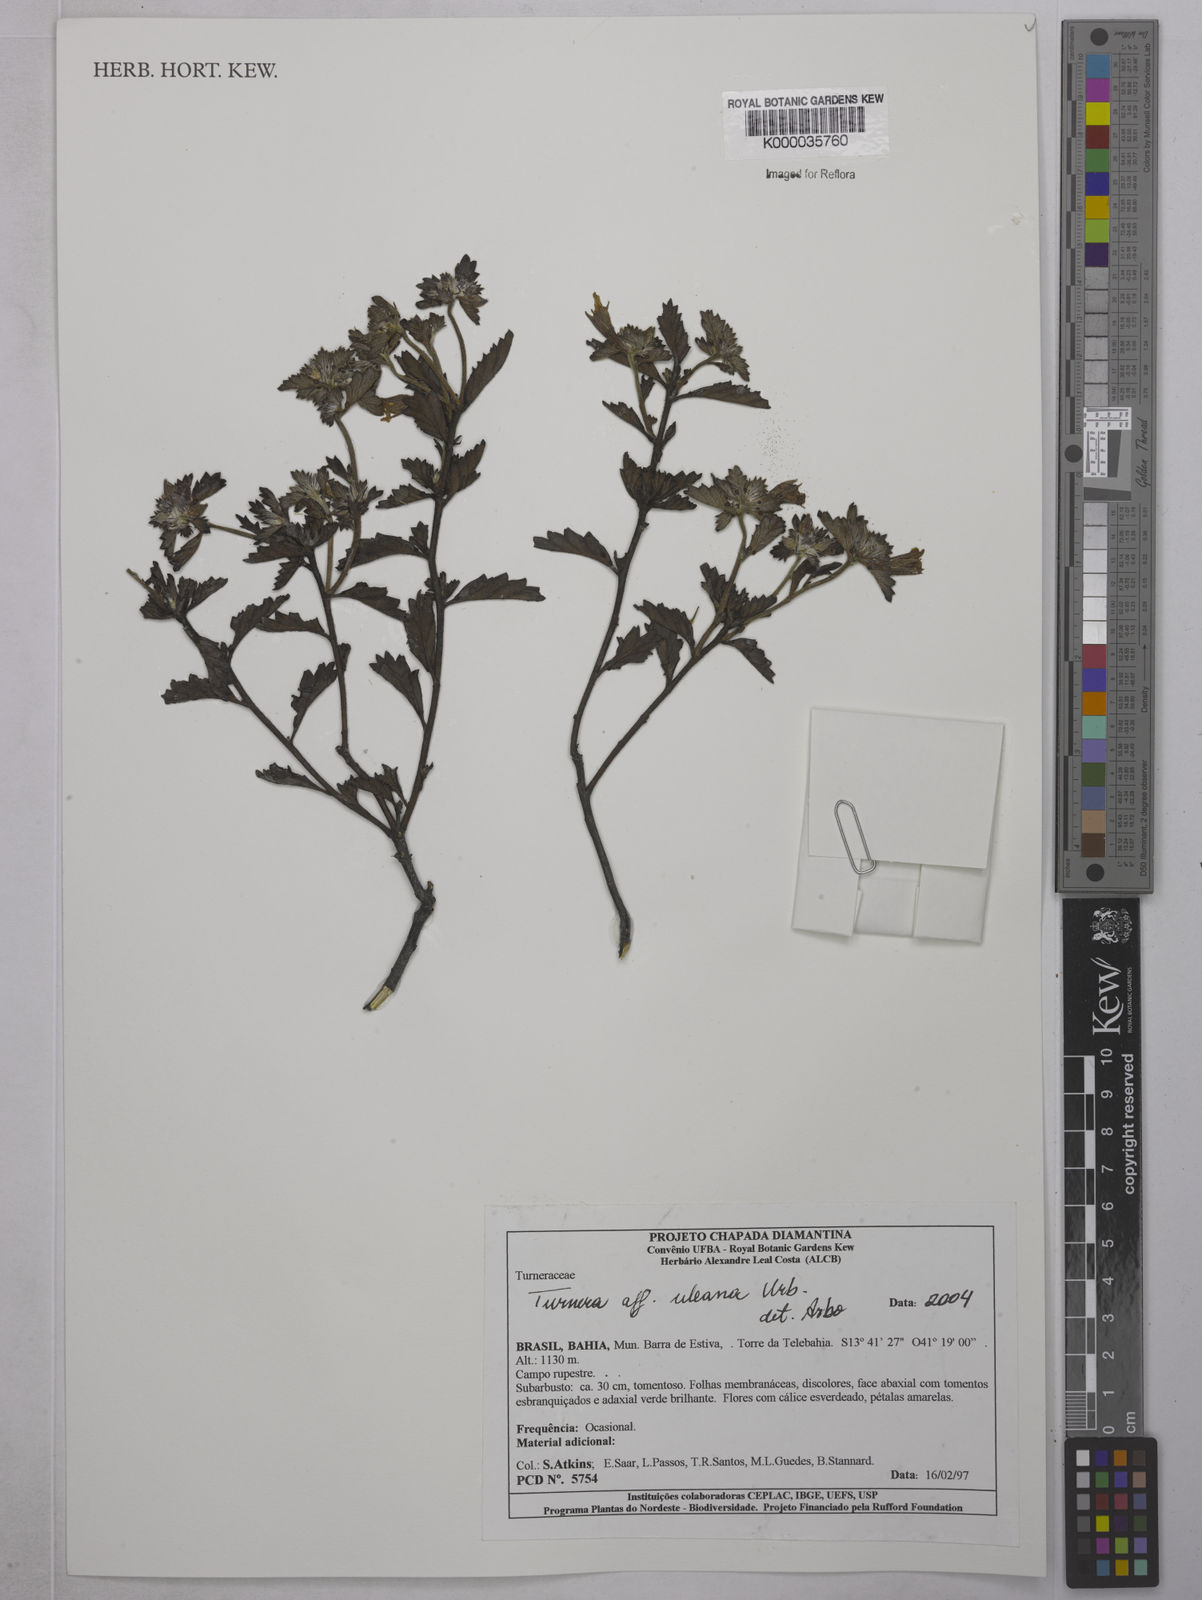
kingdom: Plantae
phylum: Tracheophyta
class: Magnoliopsida
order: Malpighiales
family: Turneraceae
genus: Turnera
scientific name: Turnera uleana
